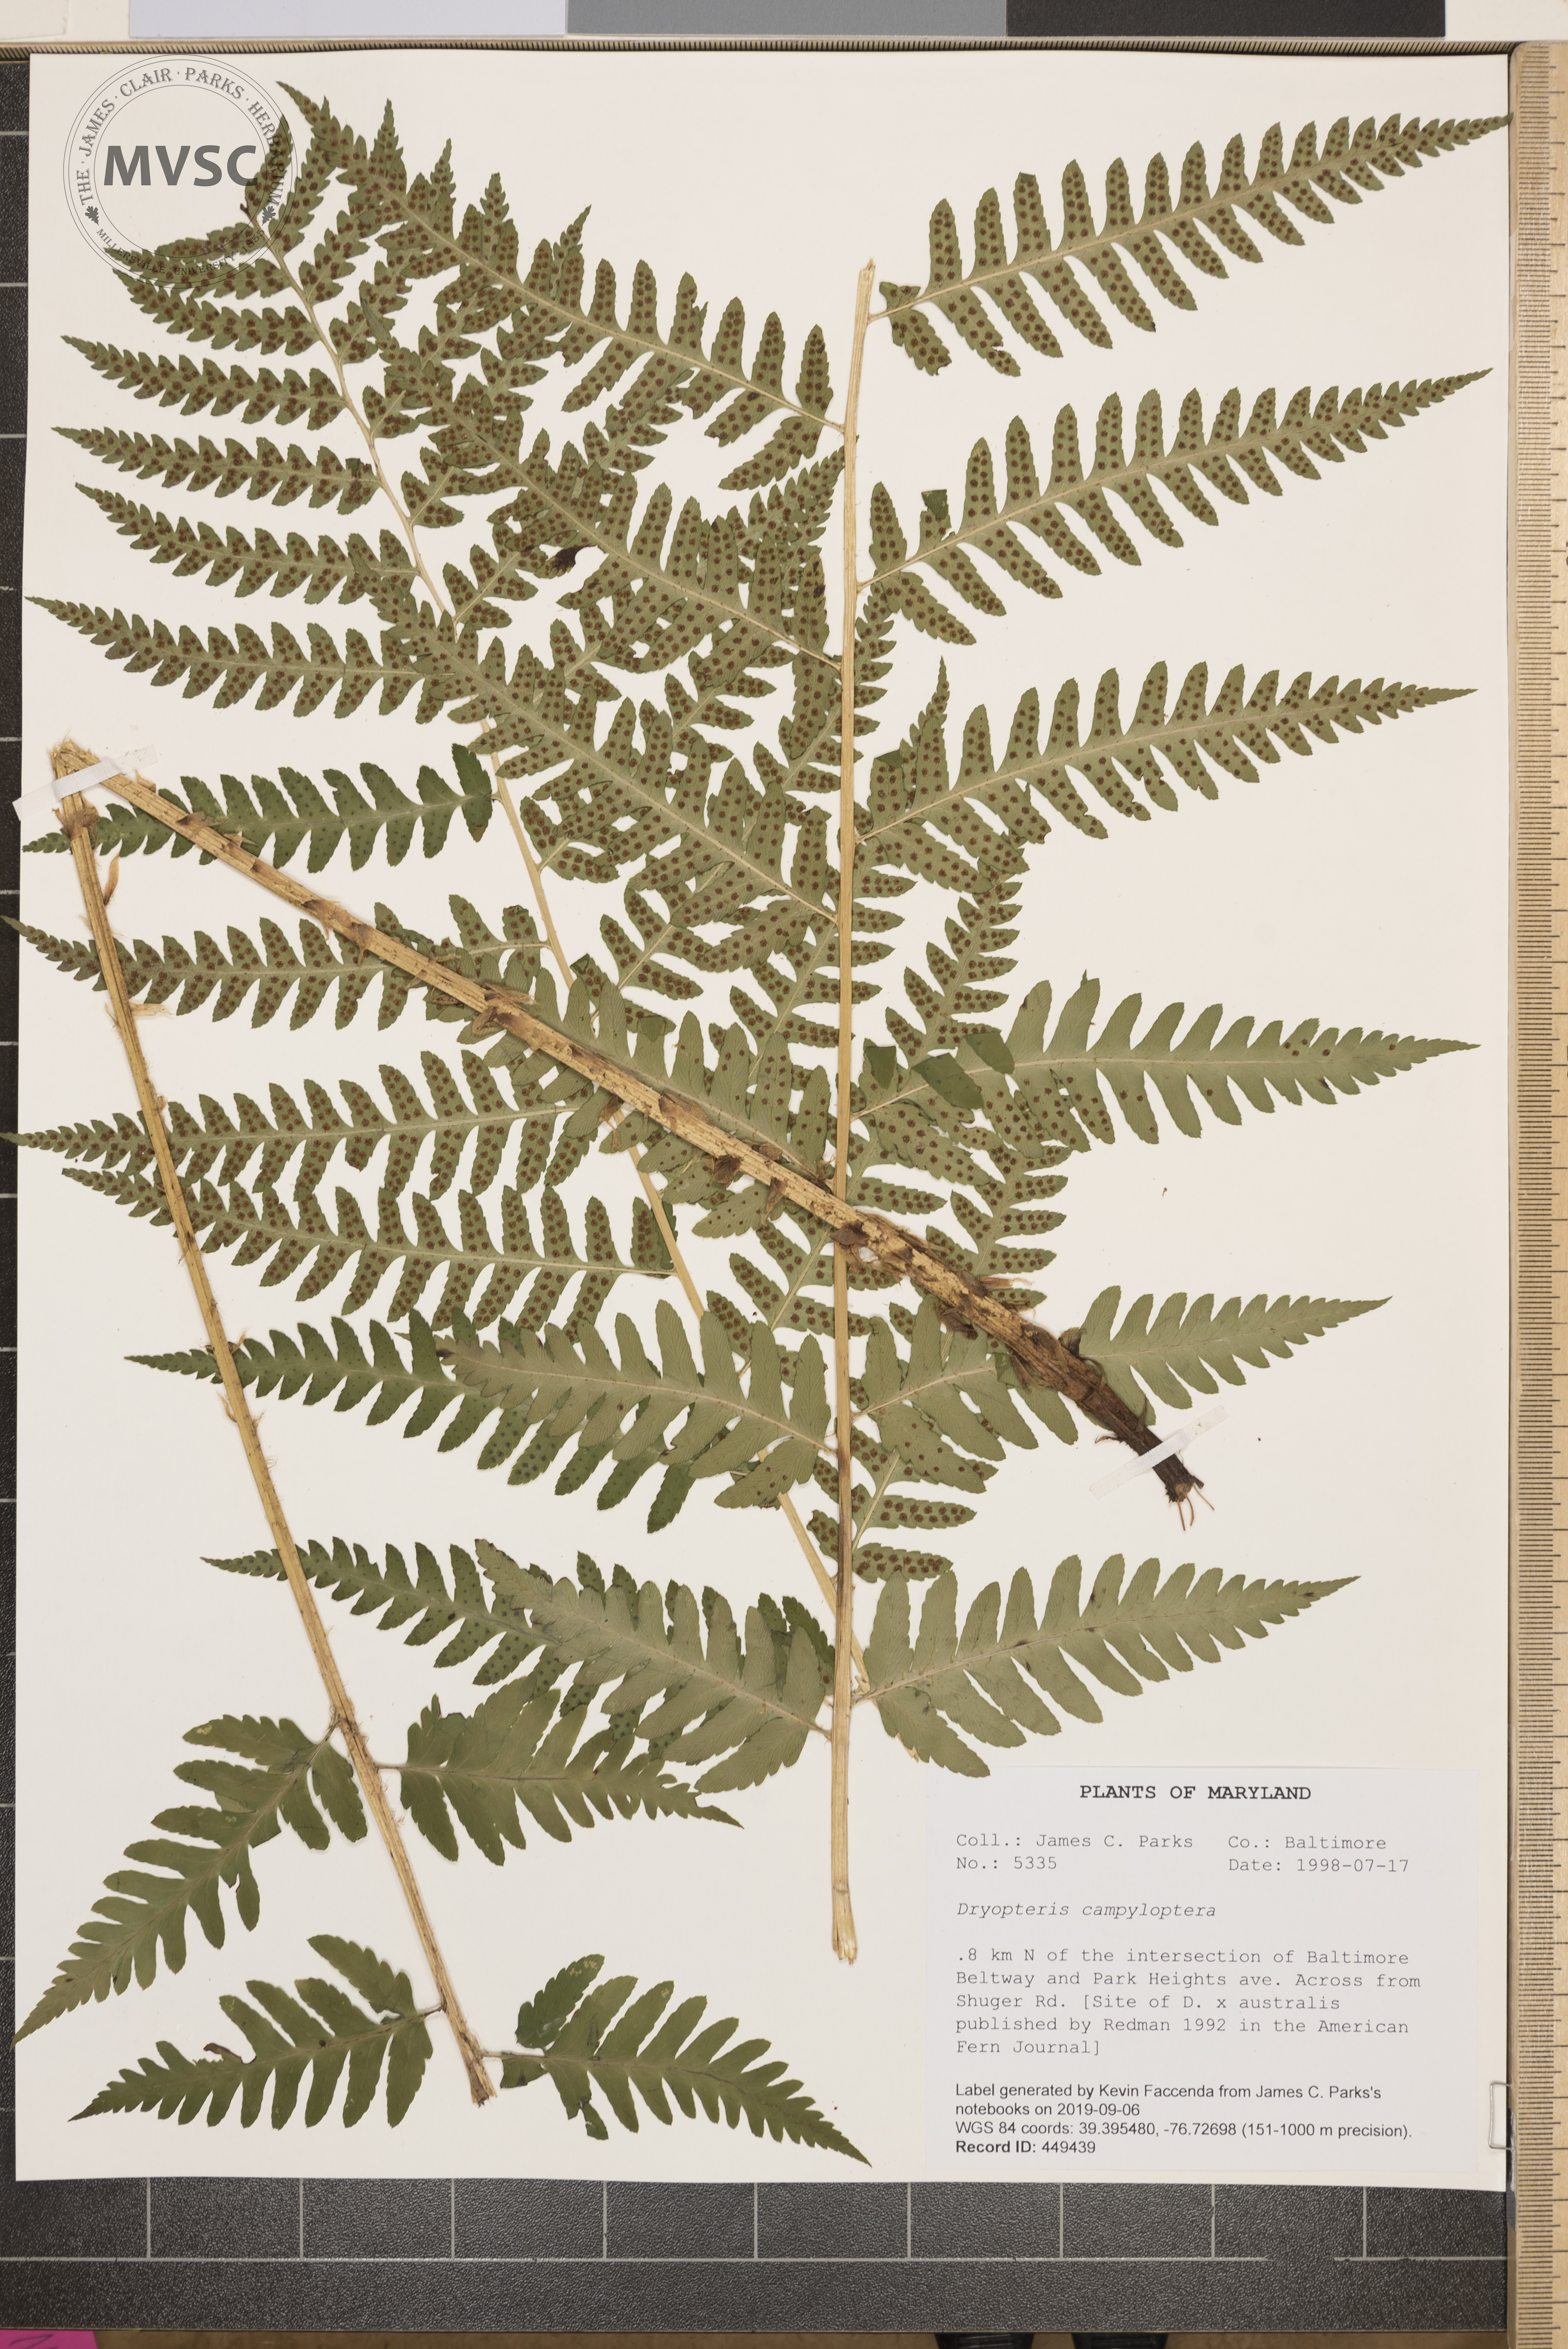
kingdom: Plantae
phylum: Tracheophyta
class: Polypodiopsida
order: Polypodiales
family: Dryopteridaceae
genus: Dryopteris
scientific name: Dryopteris celsa
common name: Log fern
